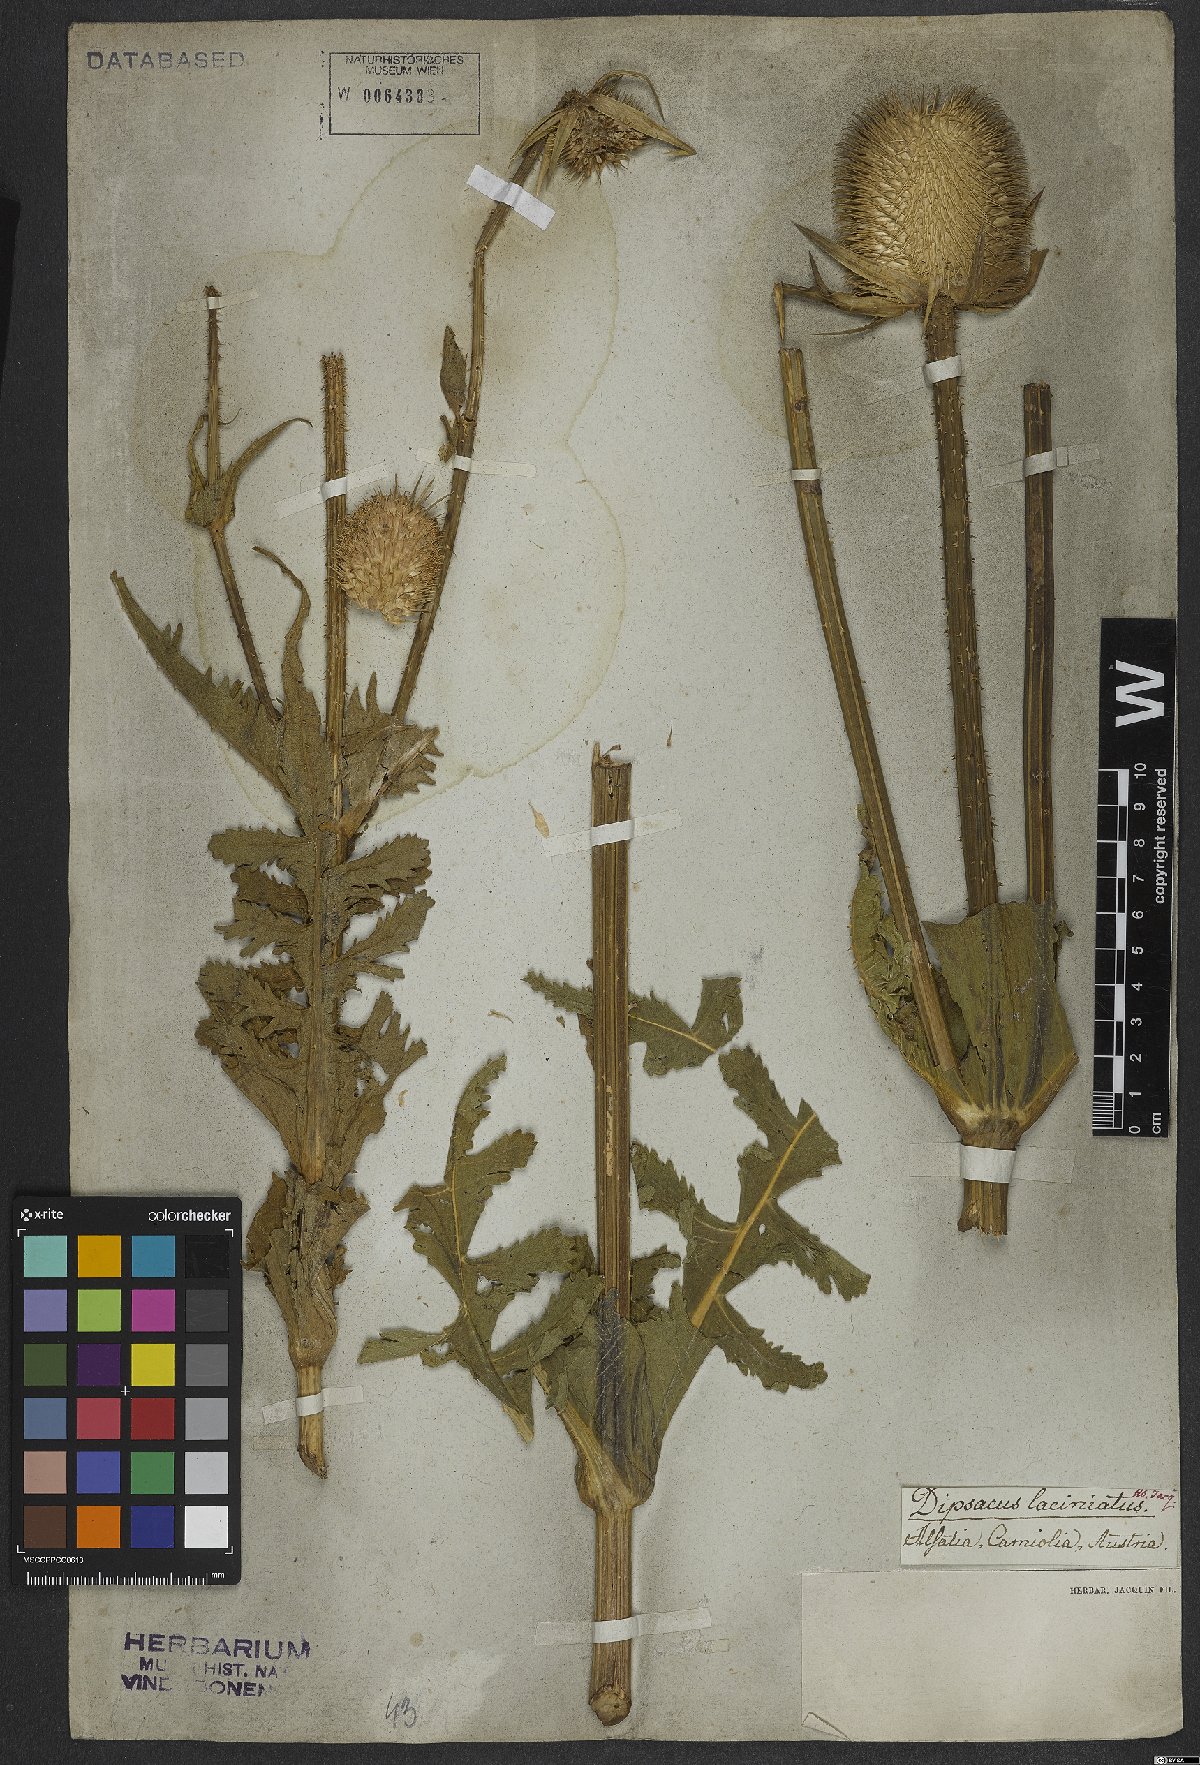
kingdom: Plantae
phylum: Tracheophyta
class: Magnoliopsida
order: Dipsacales
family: Caprifoliaceae
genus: Dipsacus
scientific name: Dipsacus laciniatus
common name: Cut-leaved teasel
